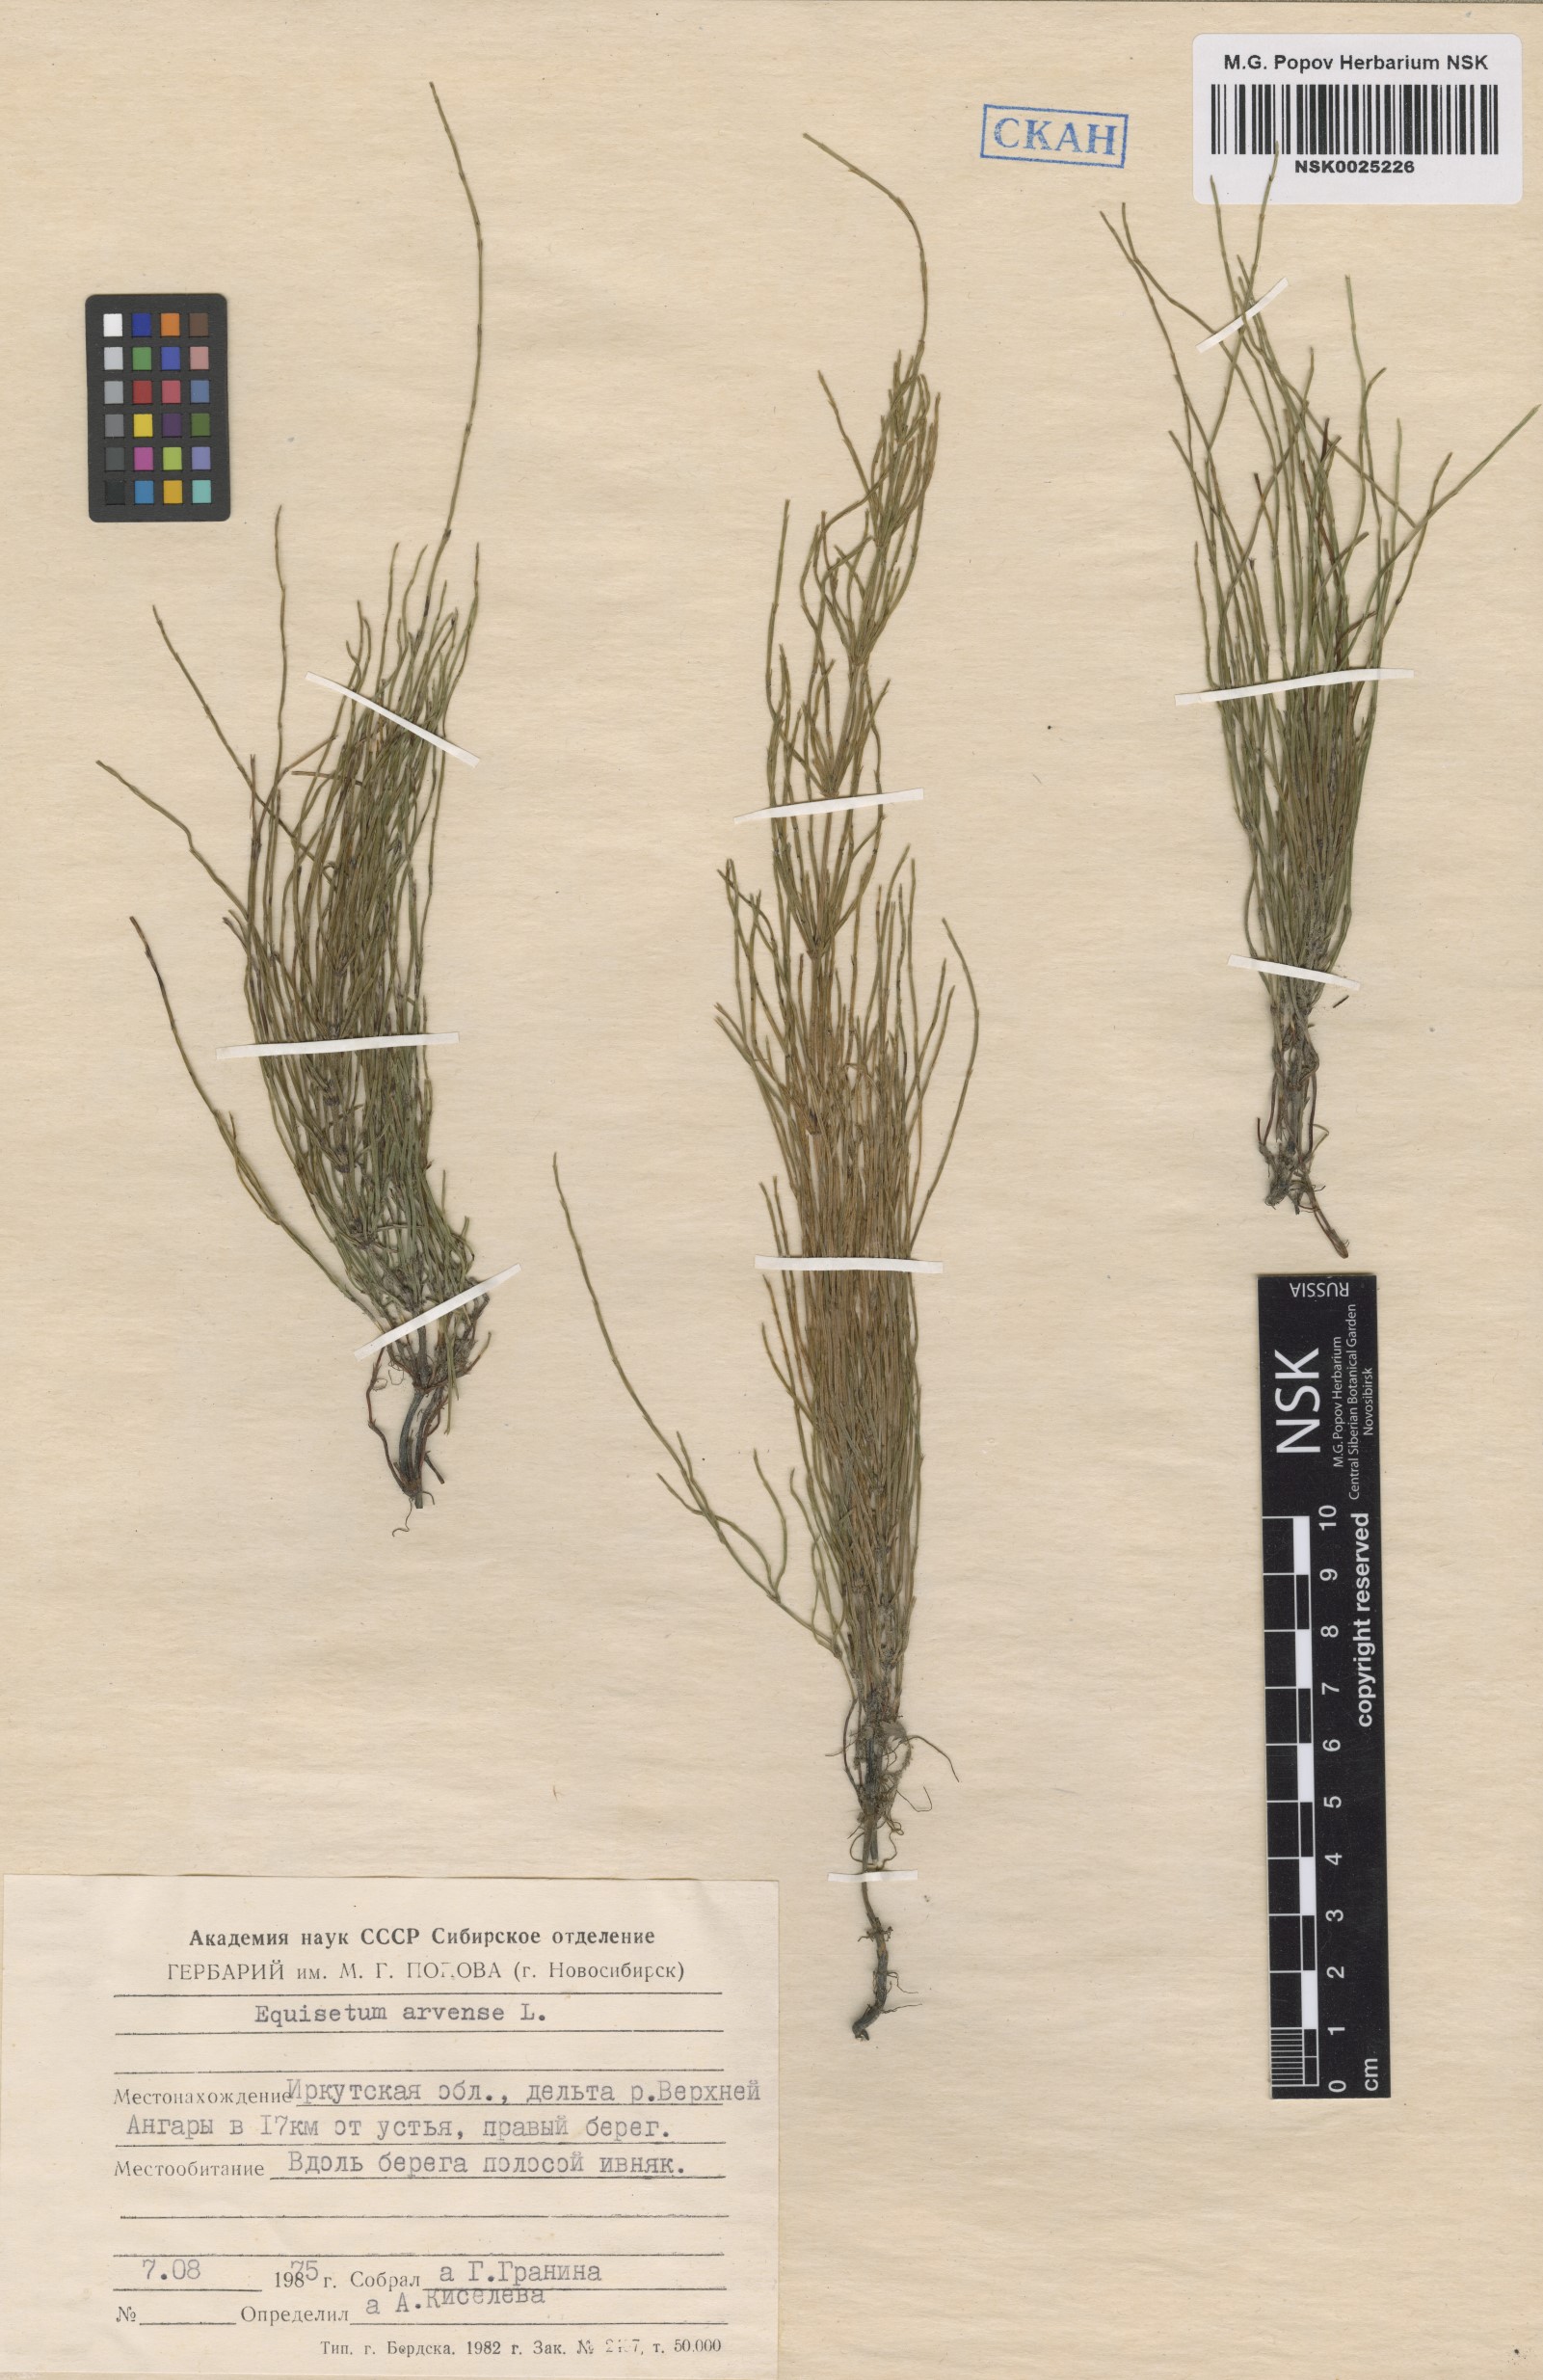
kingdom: Plantae
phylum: Tracheophyta
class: Polypodiopsida
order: Equisetales
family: Equisetaceae
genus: Equisetum
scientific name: Equisetum arvense
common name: Field horsetail
